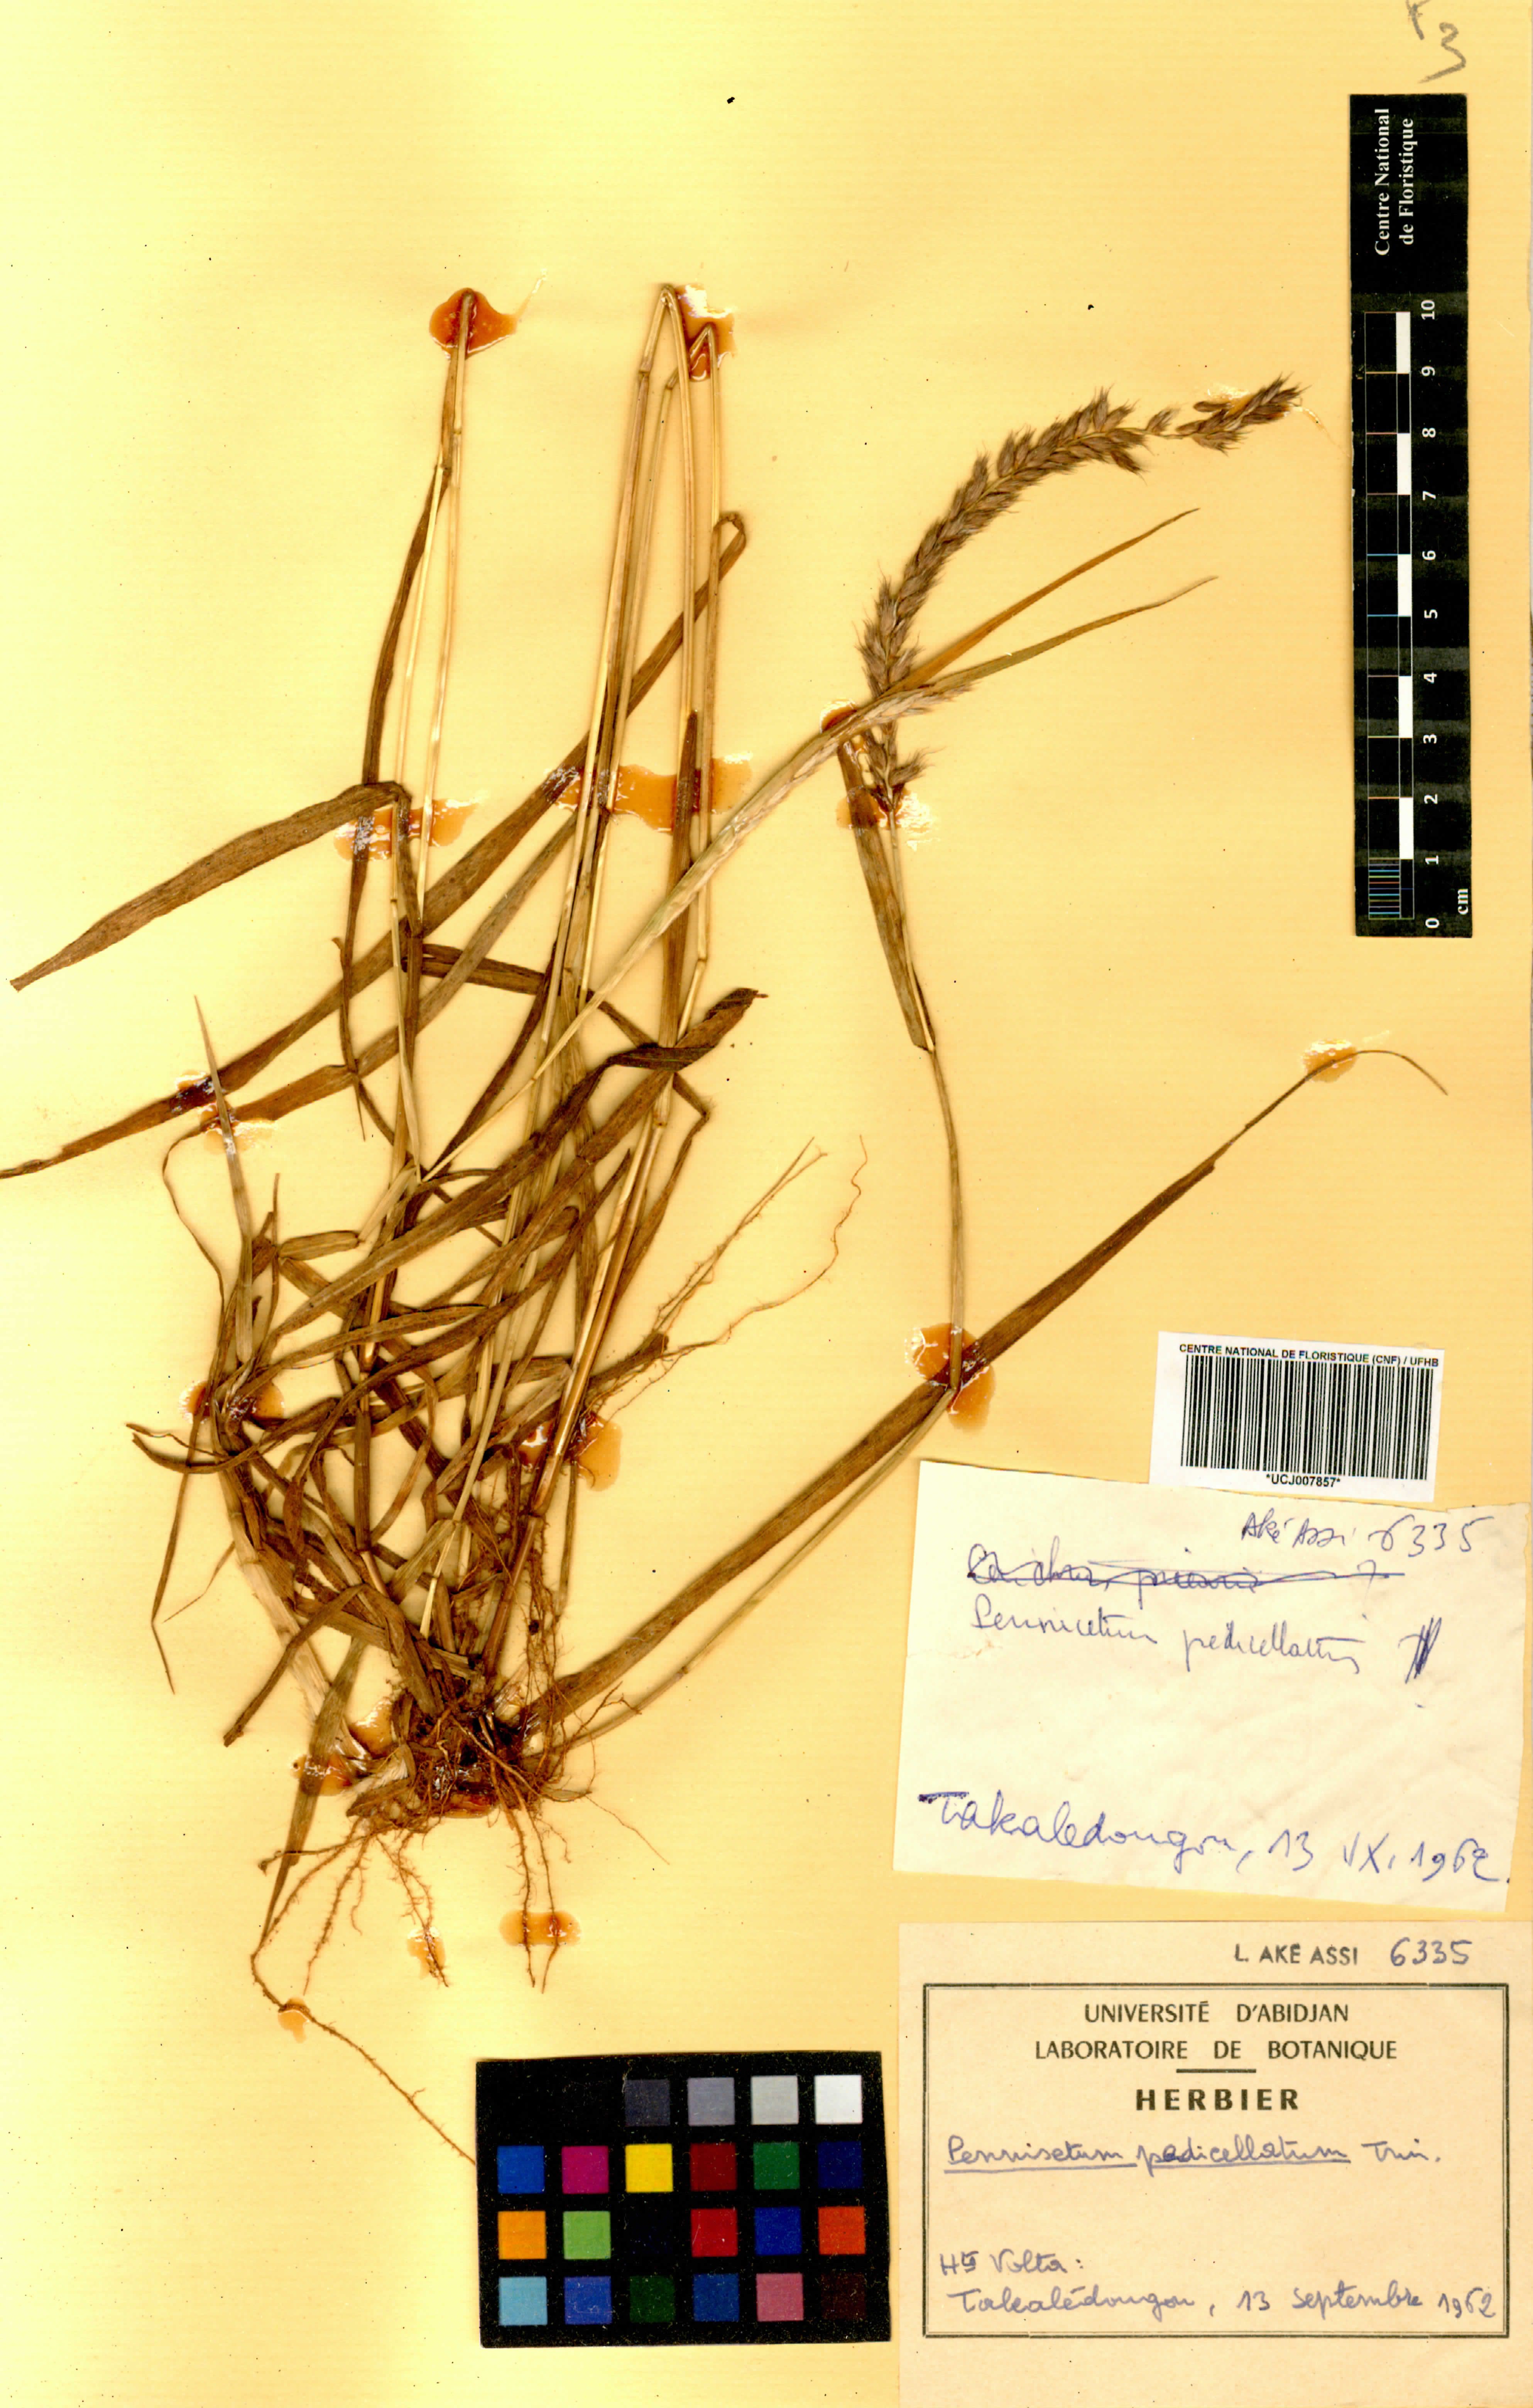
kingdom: Plantae
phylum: Tracheophyta
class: Liliopsida
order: Poales
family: Poaceae
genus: Cenchrus
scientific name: Cenchrus pedicellatus
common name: Hairy fountain grass
